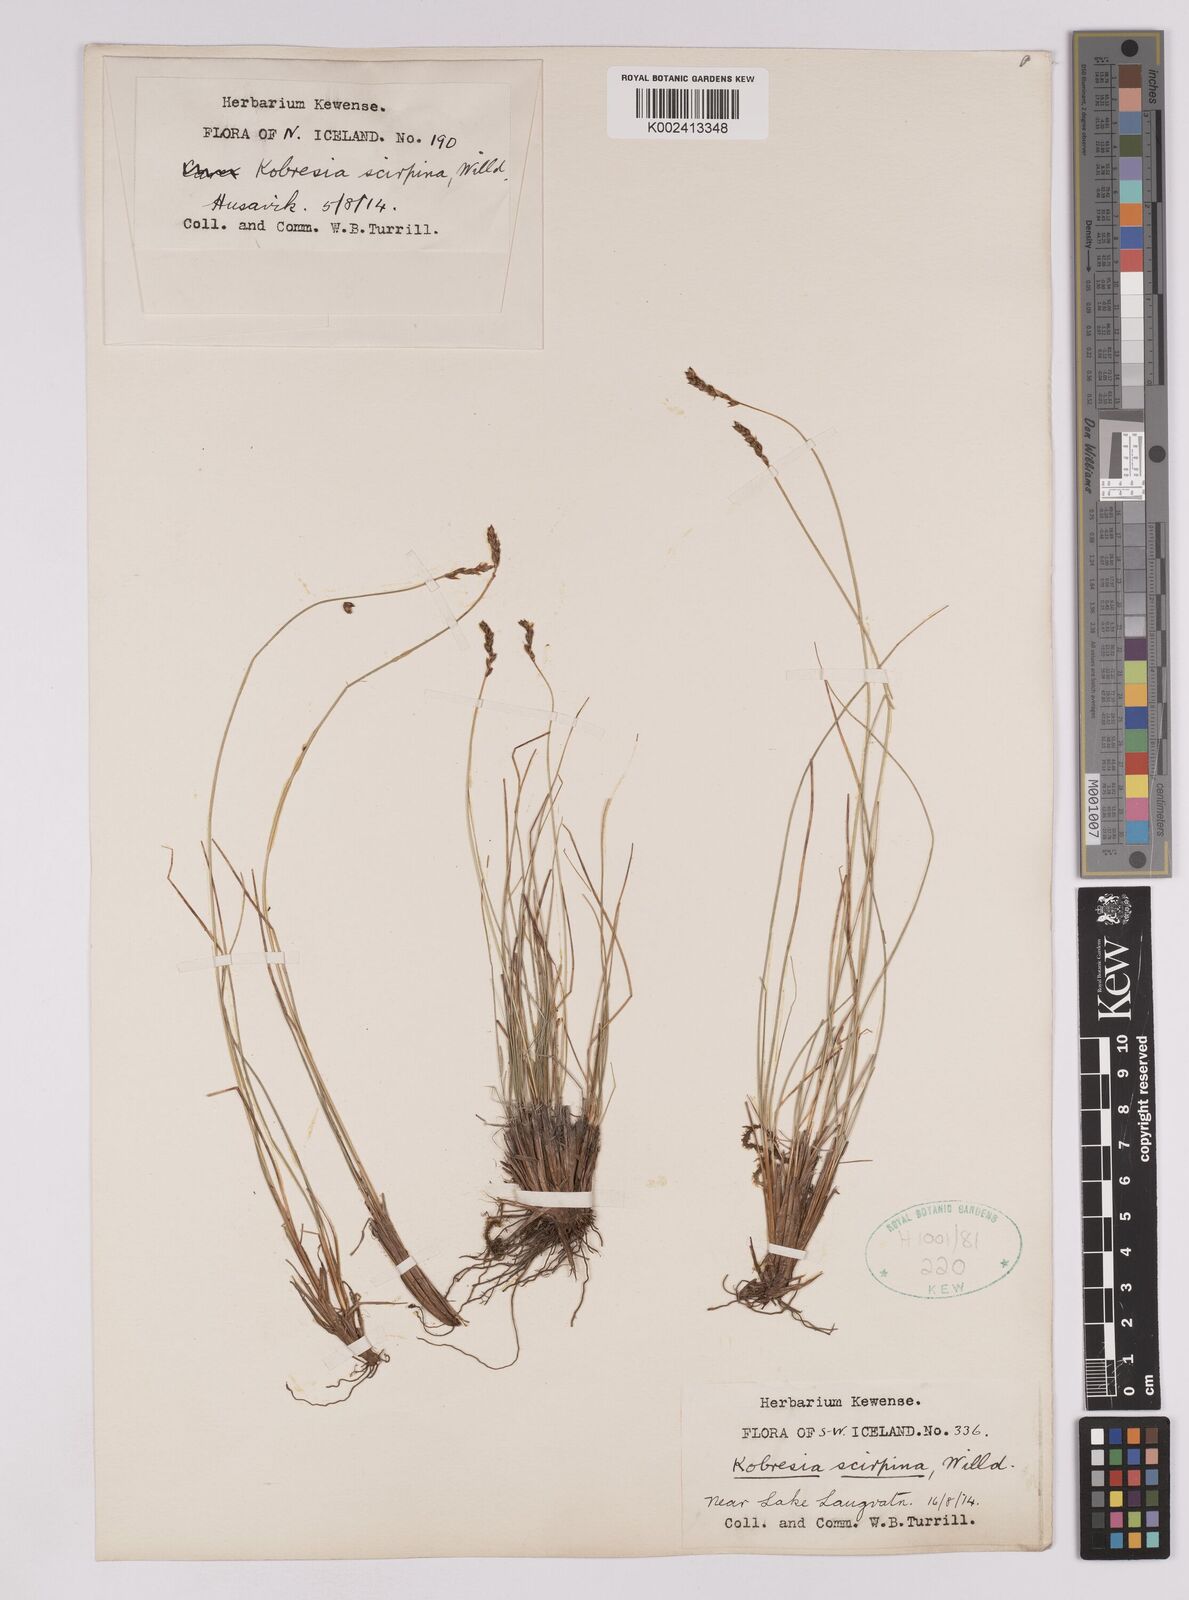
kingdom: Plantae
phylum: Tracheophyta
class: Liliopsida
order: Poales
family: Cyperaceae
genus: Carex
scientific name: Carex myosuroides
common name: Bellard's bog sedge
